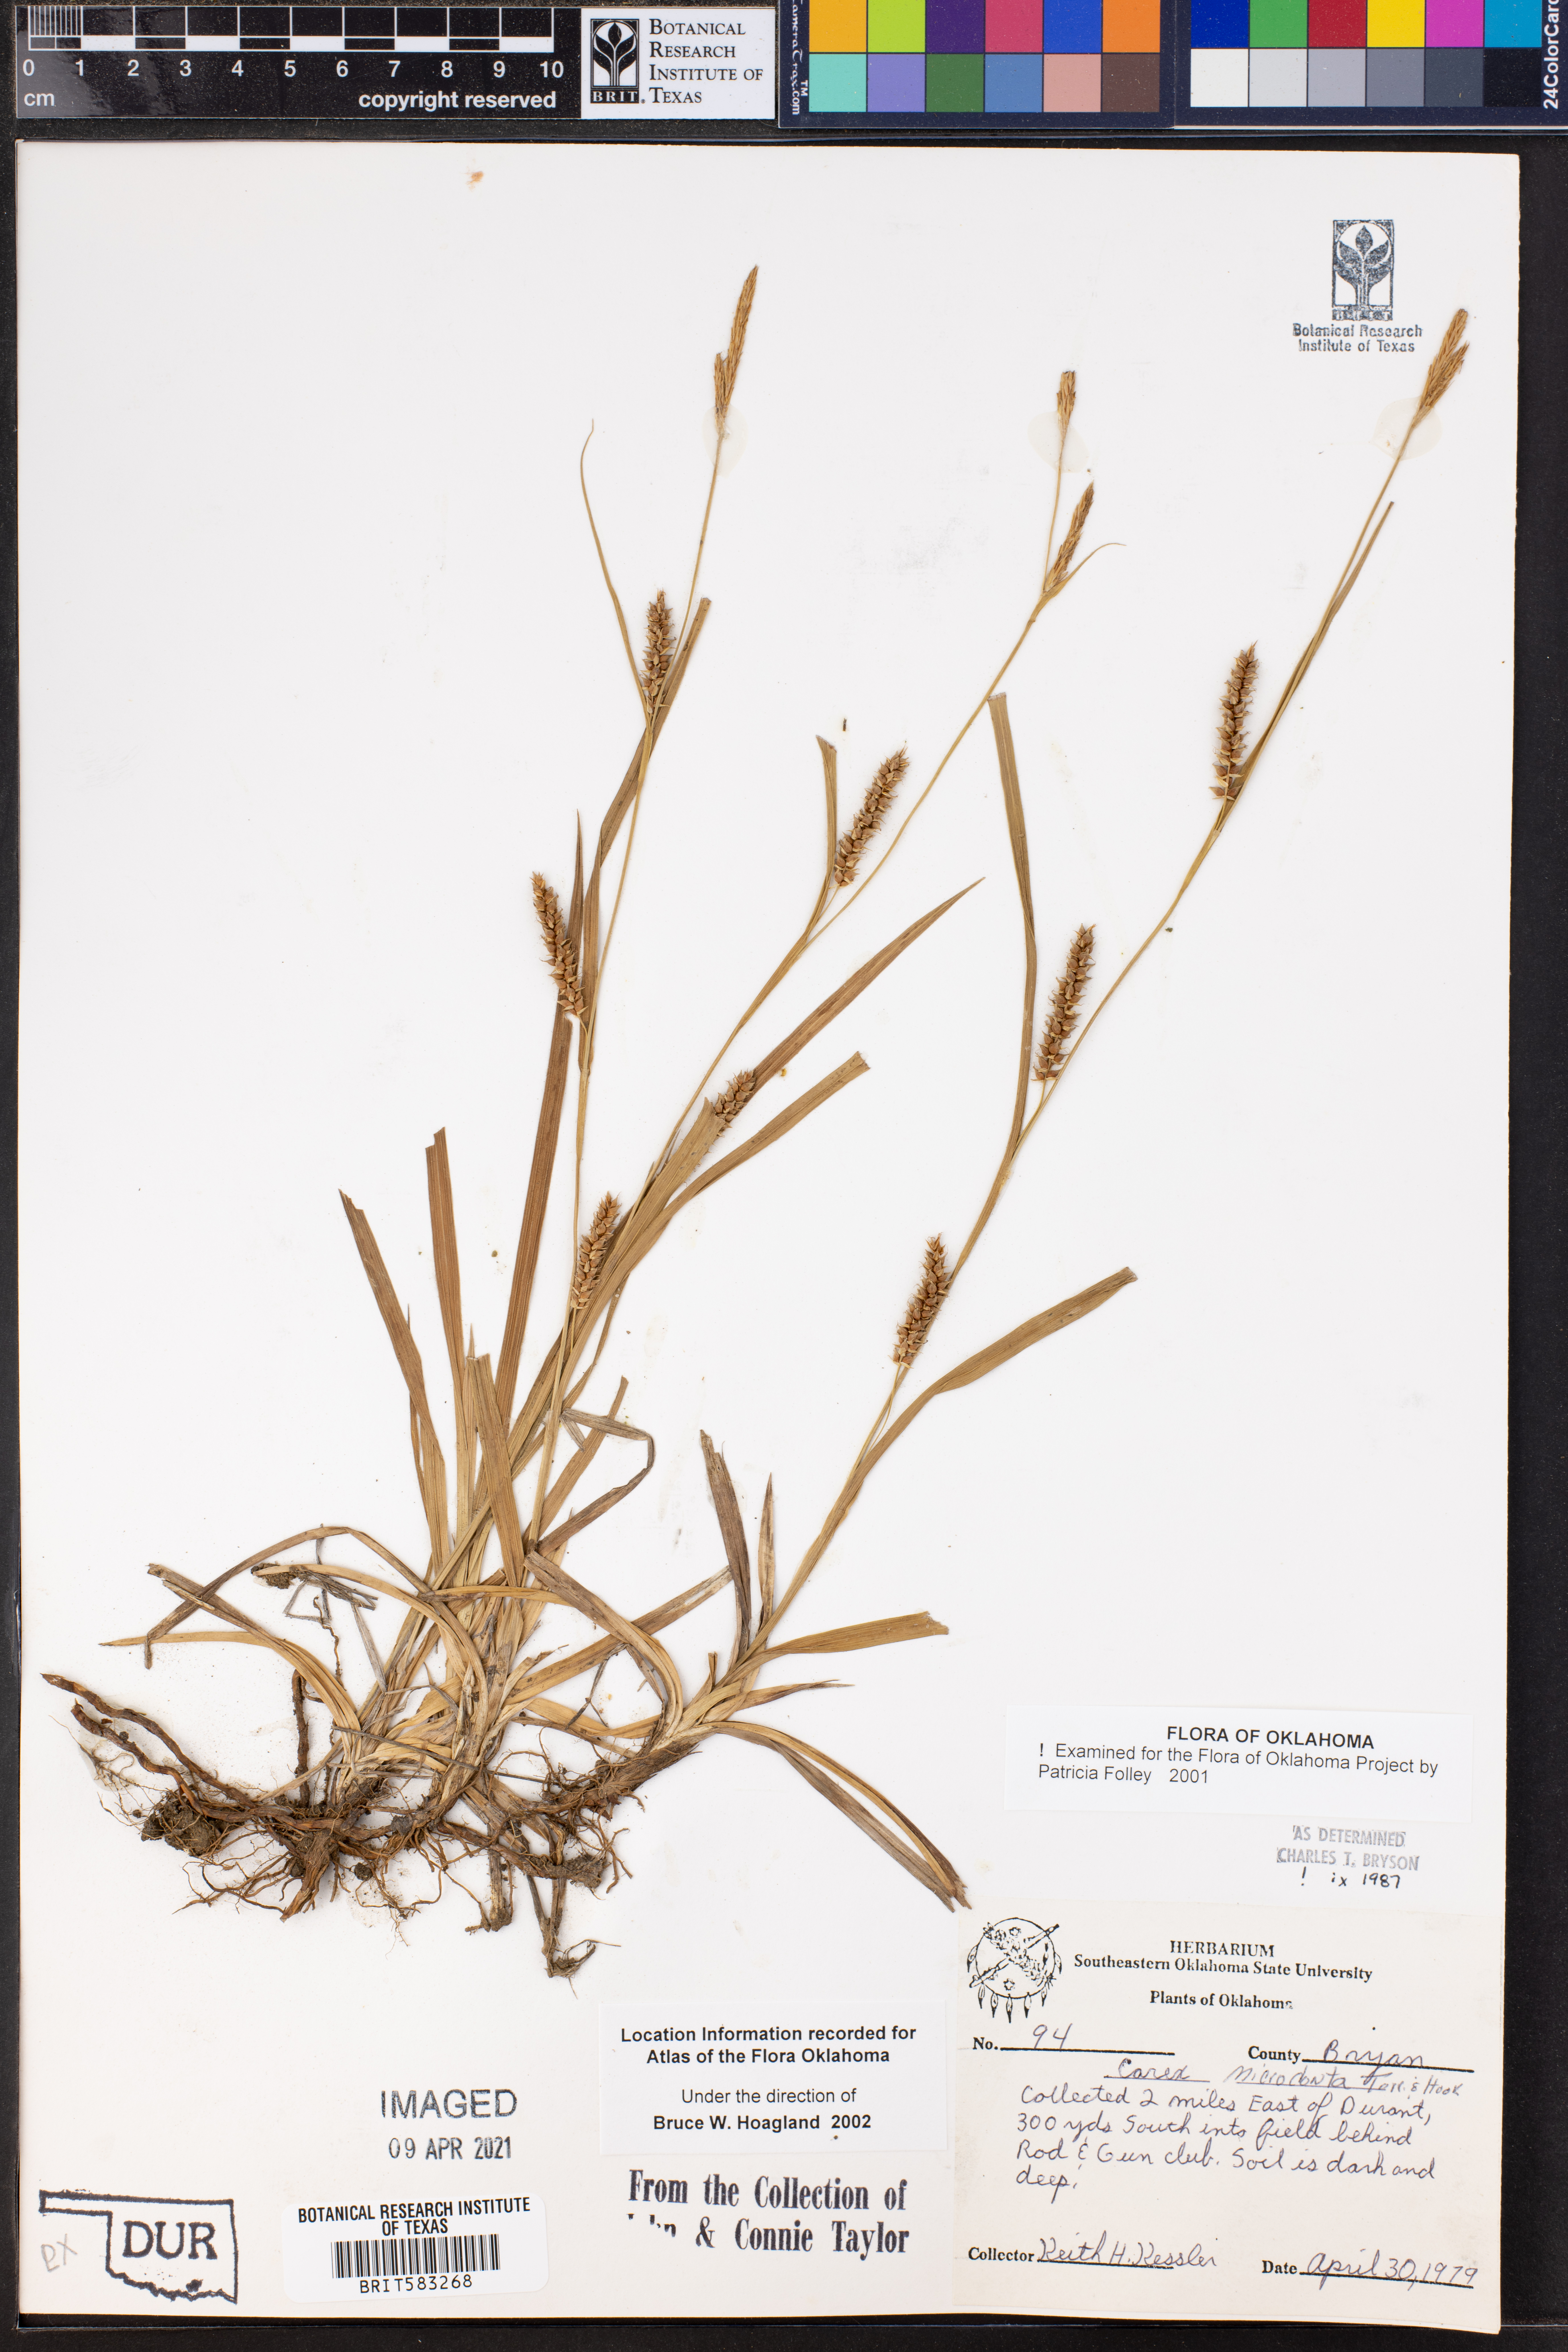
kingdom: Plantae
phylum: Tracheophyta
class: Liliopsida
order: Poales
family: Cyperaceae
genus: Carex
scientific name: Carex microdonta
